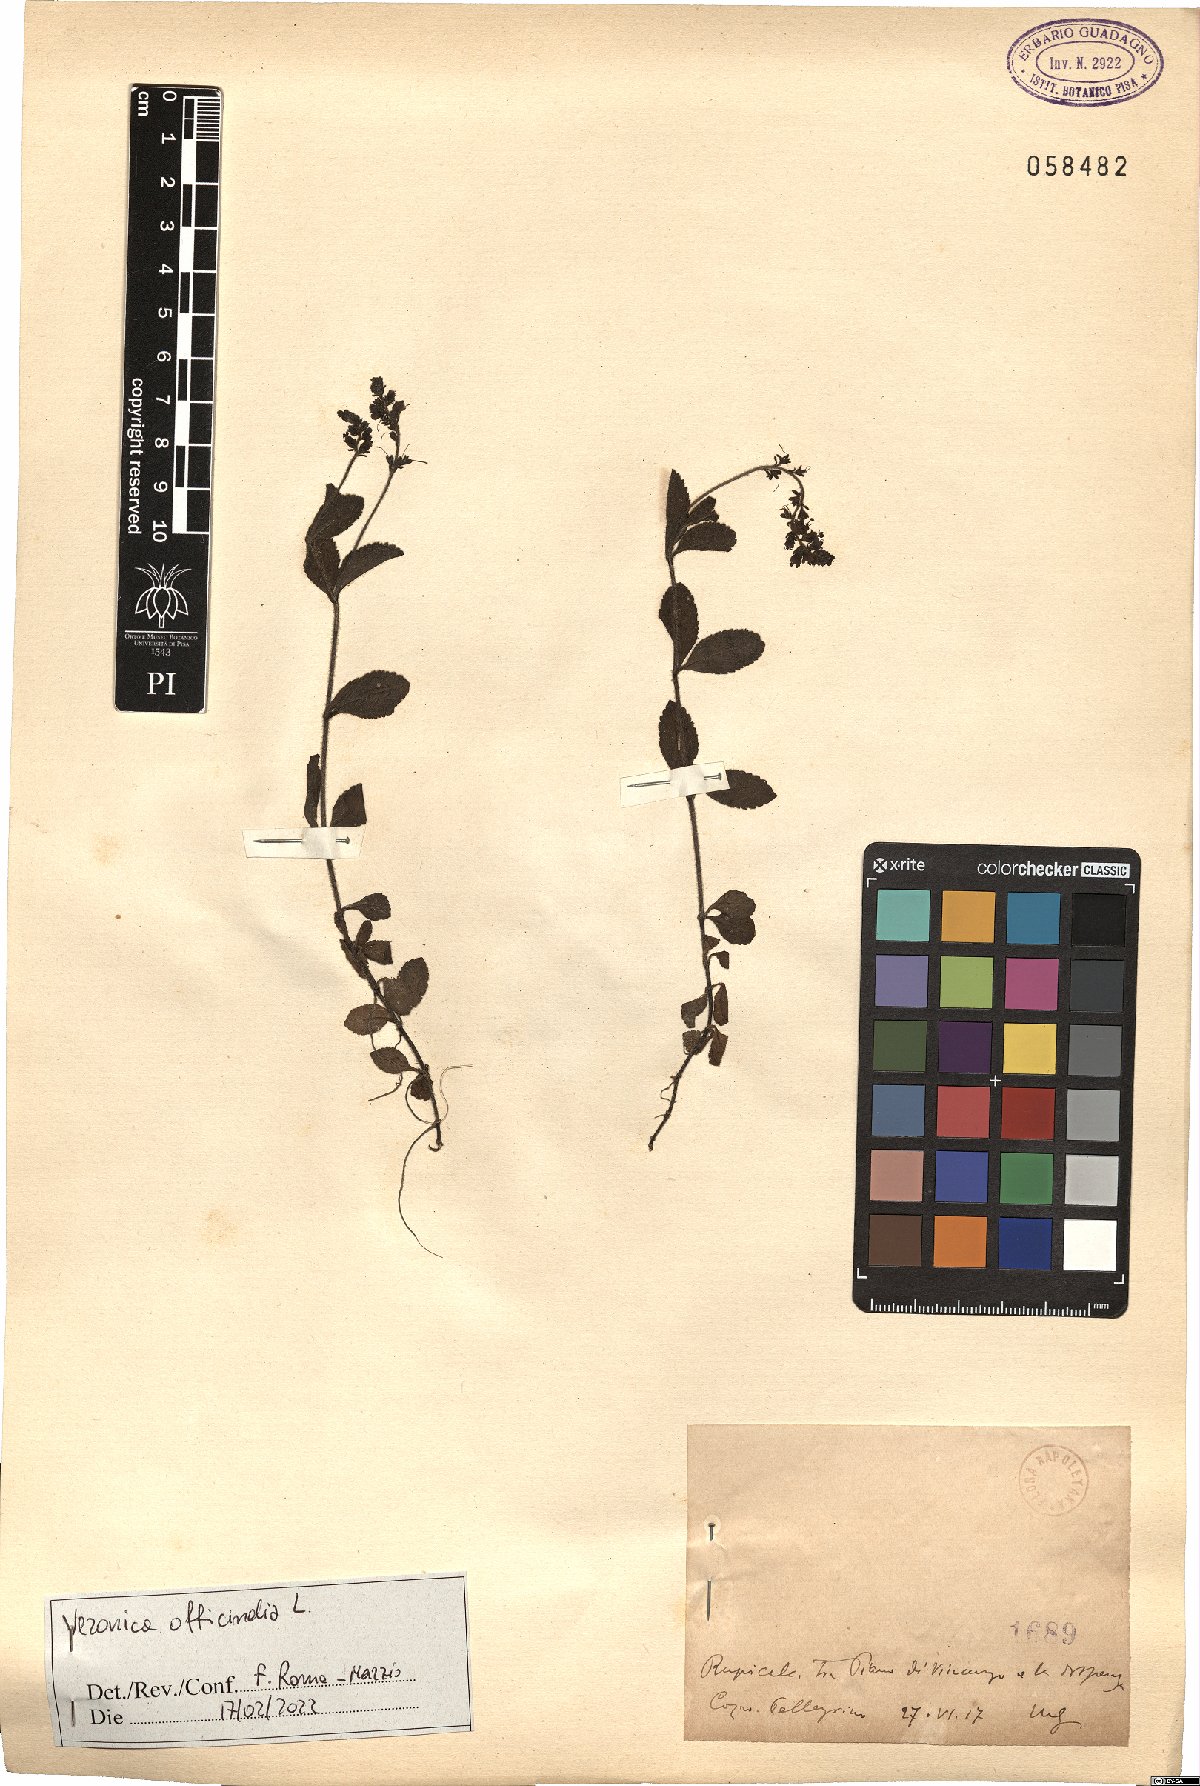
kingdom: Plantae
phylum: Tracheophyta
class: Magnoliopsida
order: Lamiales
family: Plantaginaceae
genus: Veronica
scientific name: Veronica officinalis
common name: Common speedwell
